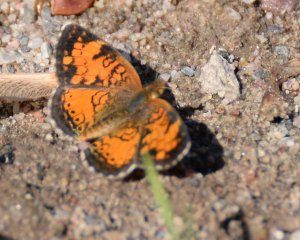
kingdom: Animalia
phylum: Arthropoda
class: Insecta
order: Lepidoptera
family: Nymphalidae
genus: Phyciodes
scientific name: Phyciodes tharos
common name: Northern Crescent
